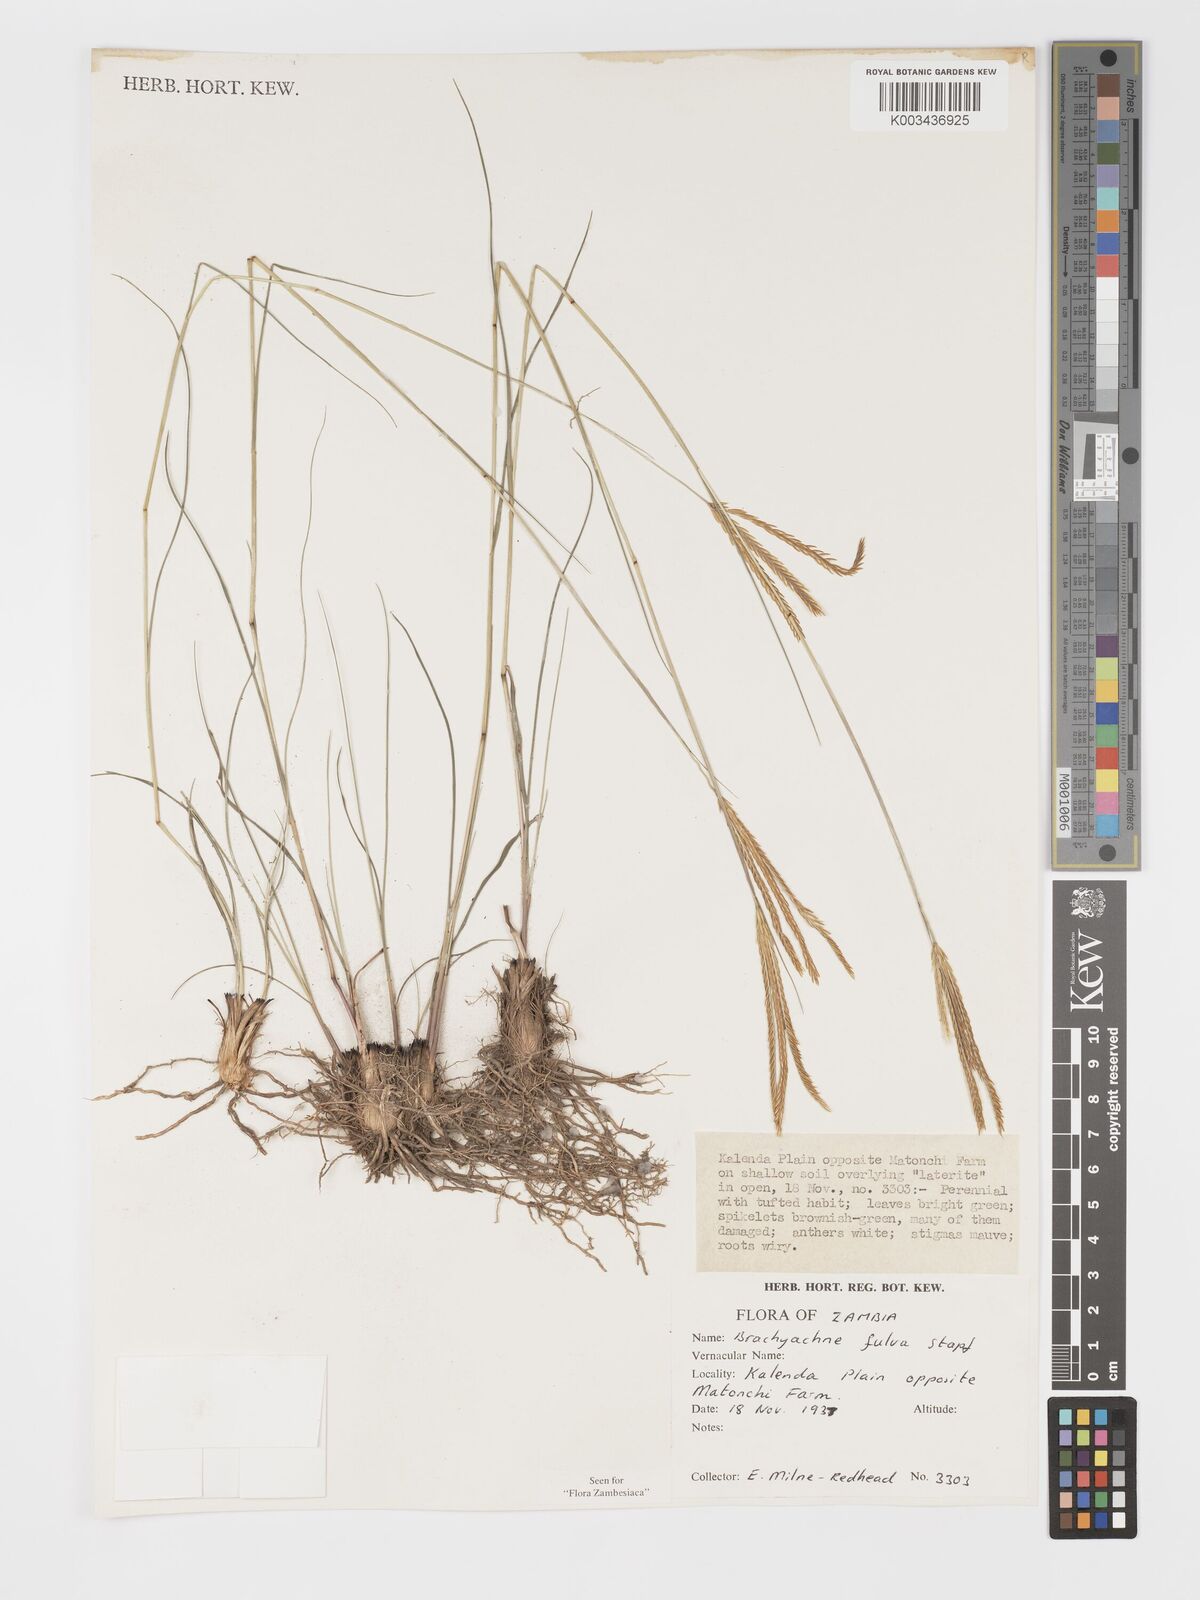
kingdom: Plantae
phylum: Tracheophyta
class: Liliopsida
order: Poales
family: Poaceae
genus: Micrachne
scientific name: Micrachne fulva
